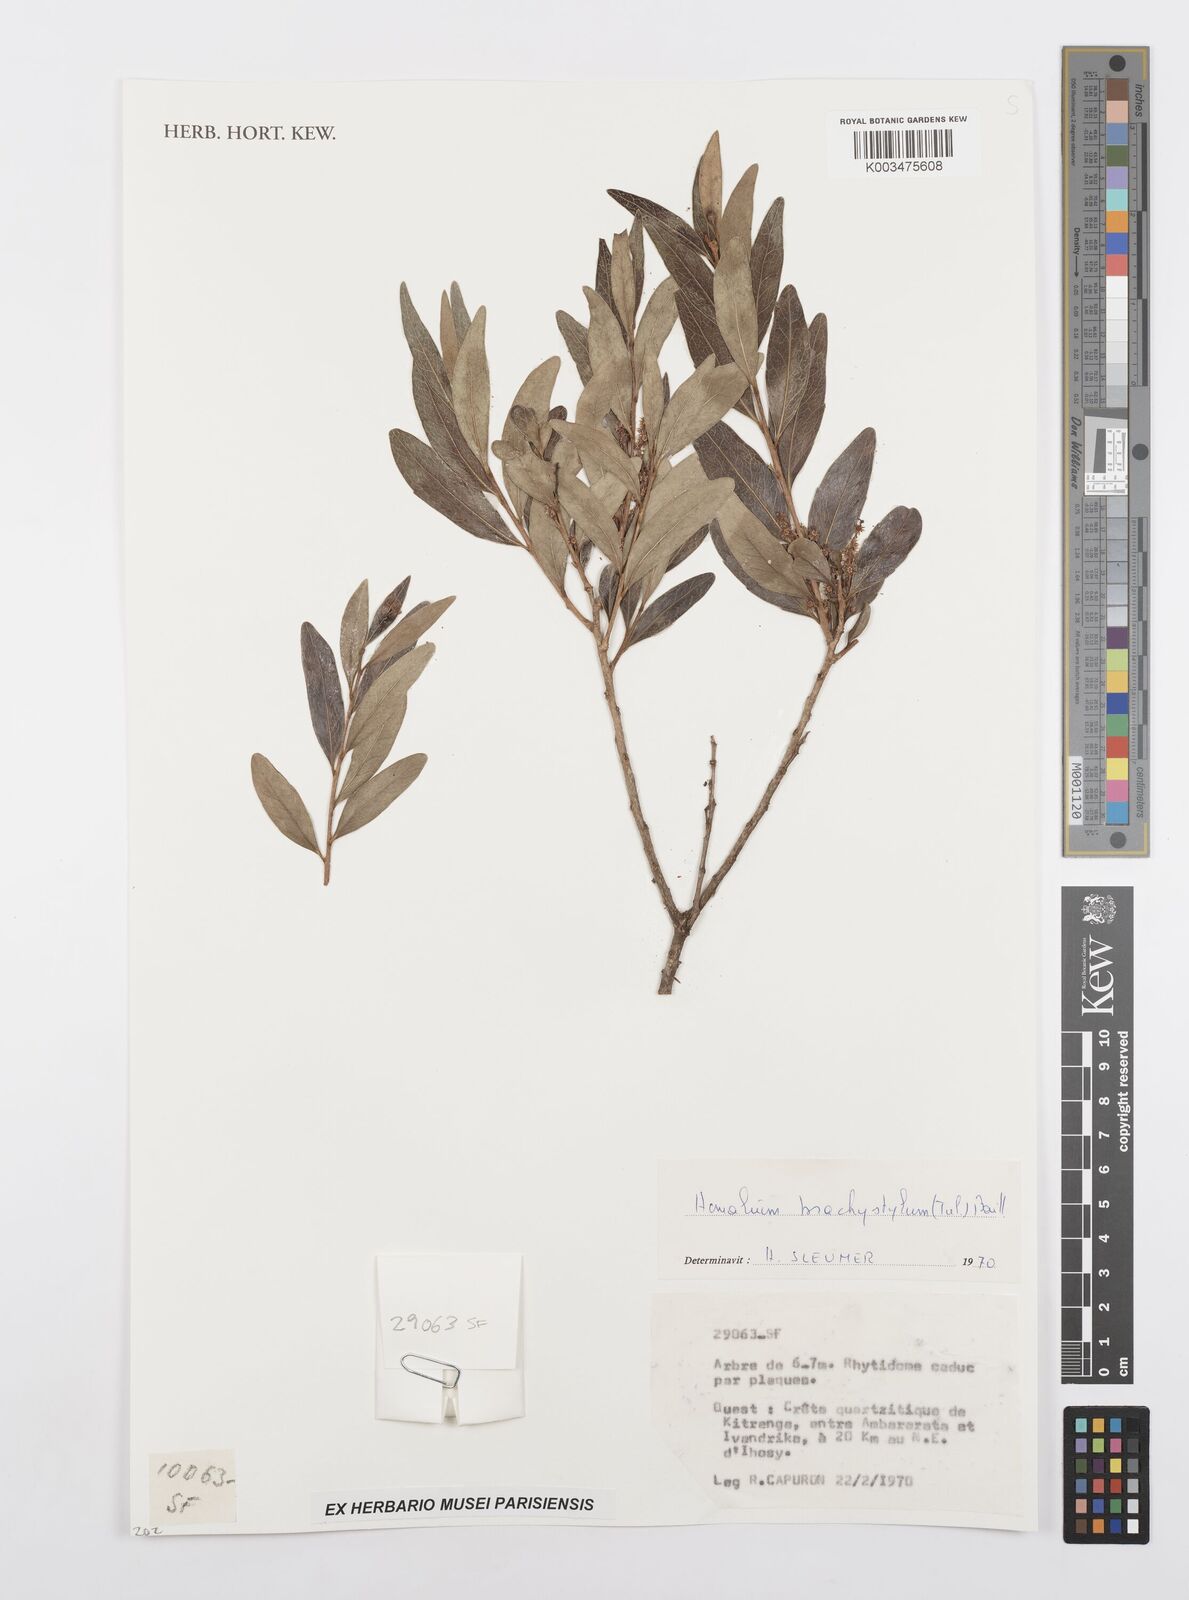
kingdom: Plantae
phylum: Tracheophyta
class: Magnoliopsida
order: Malpighiales
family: Salicaceae
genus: Homalium
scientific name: Homalium brachystylis
